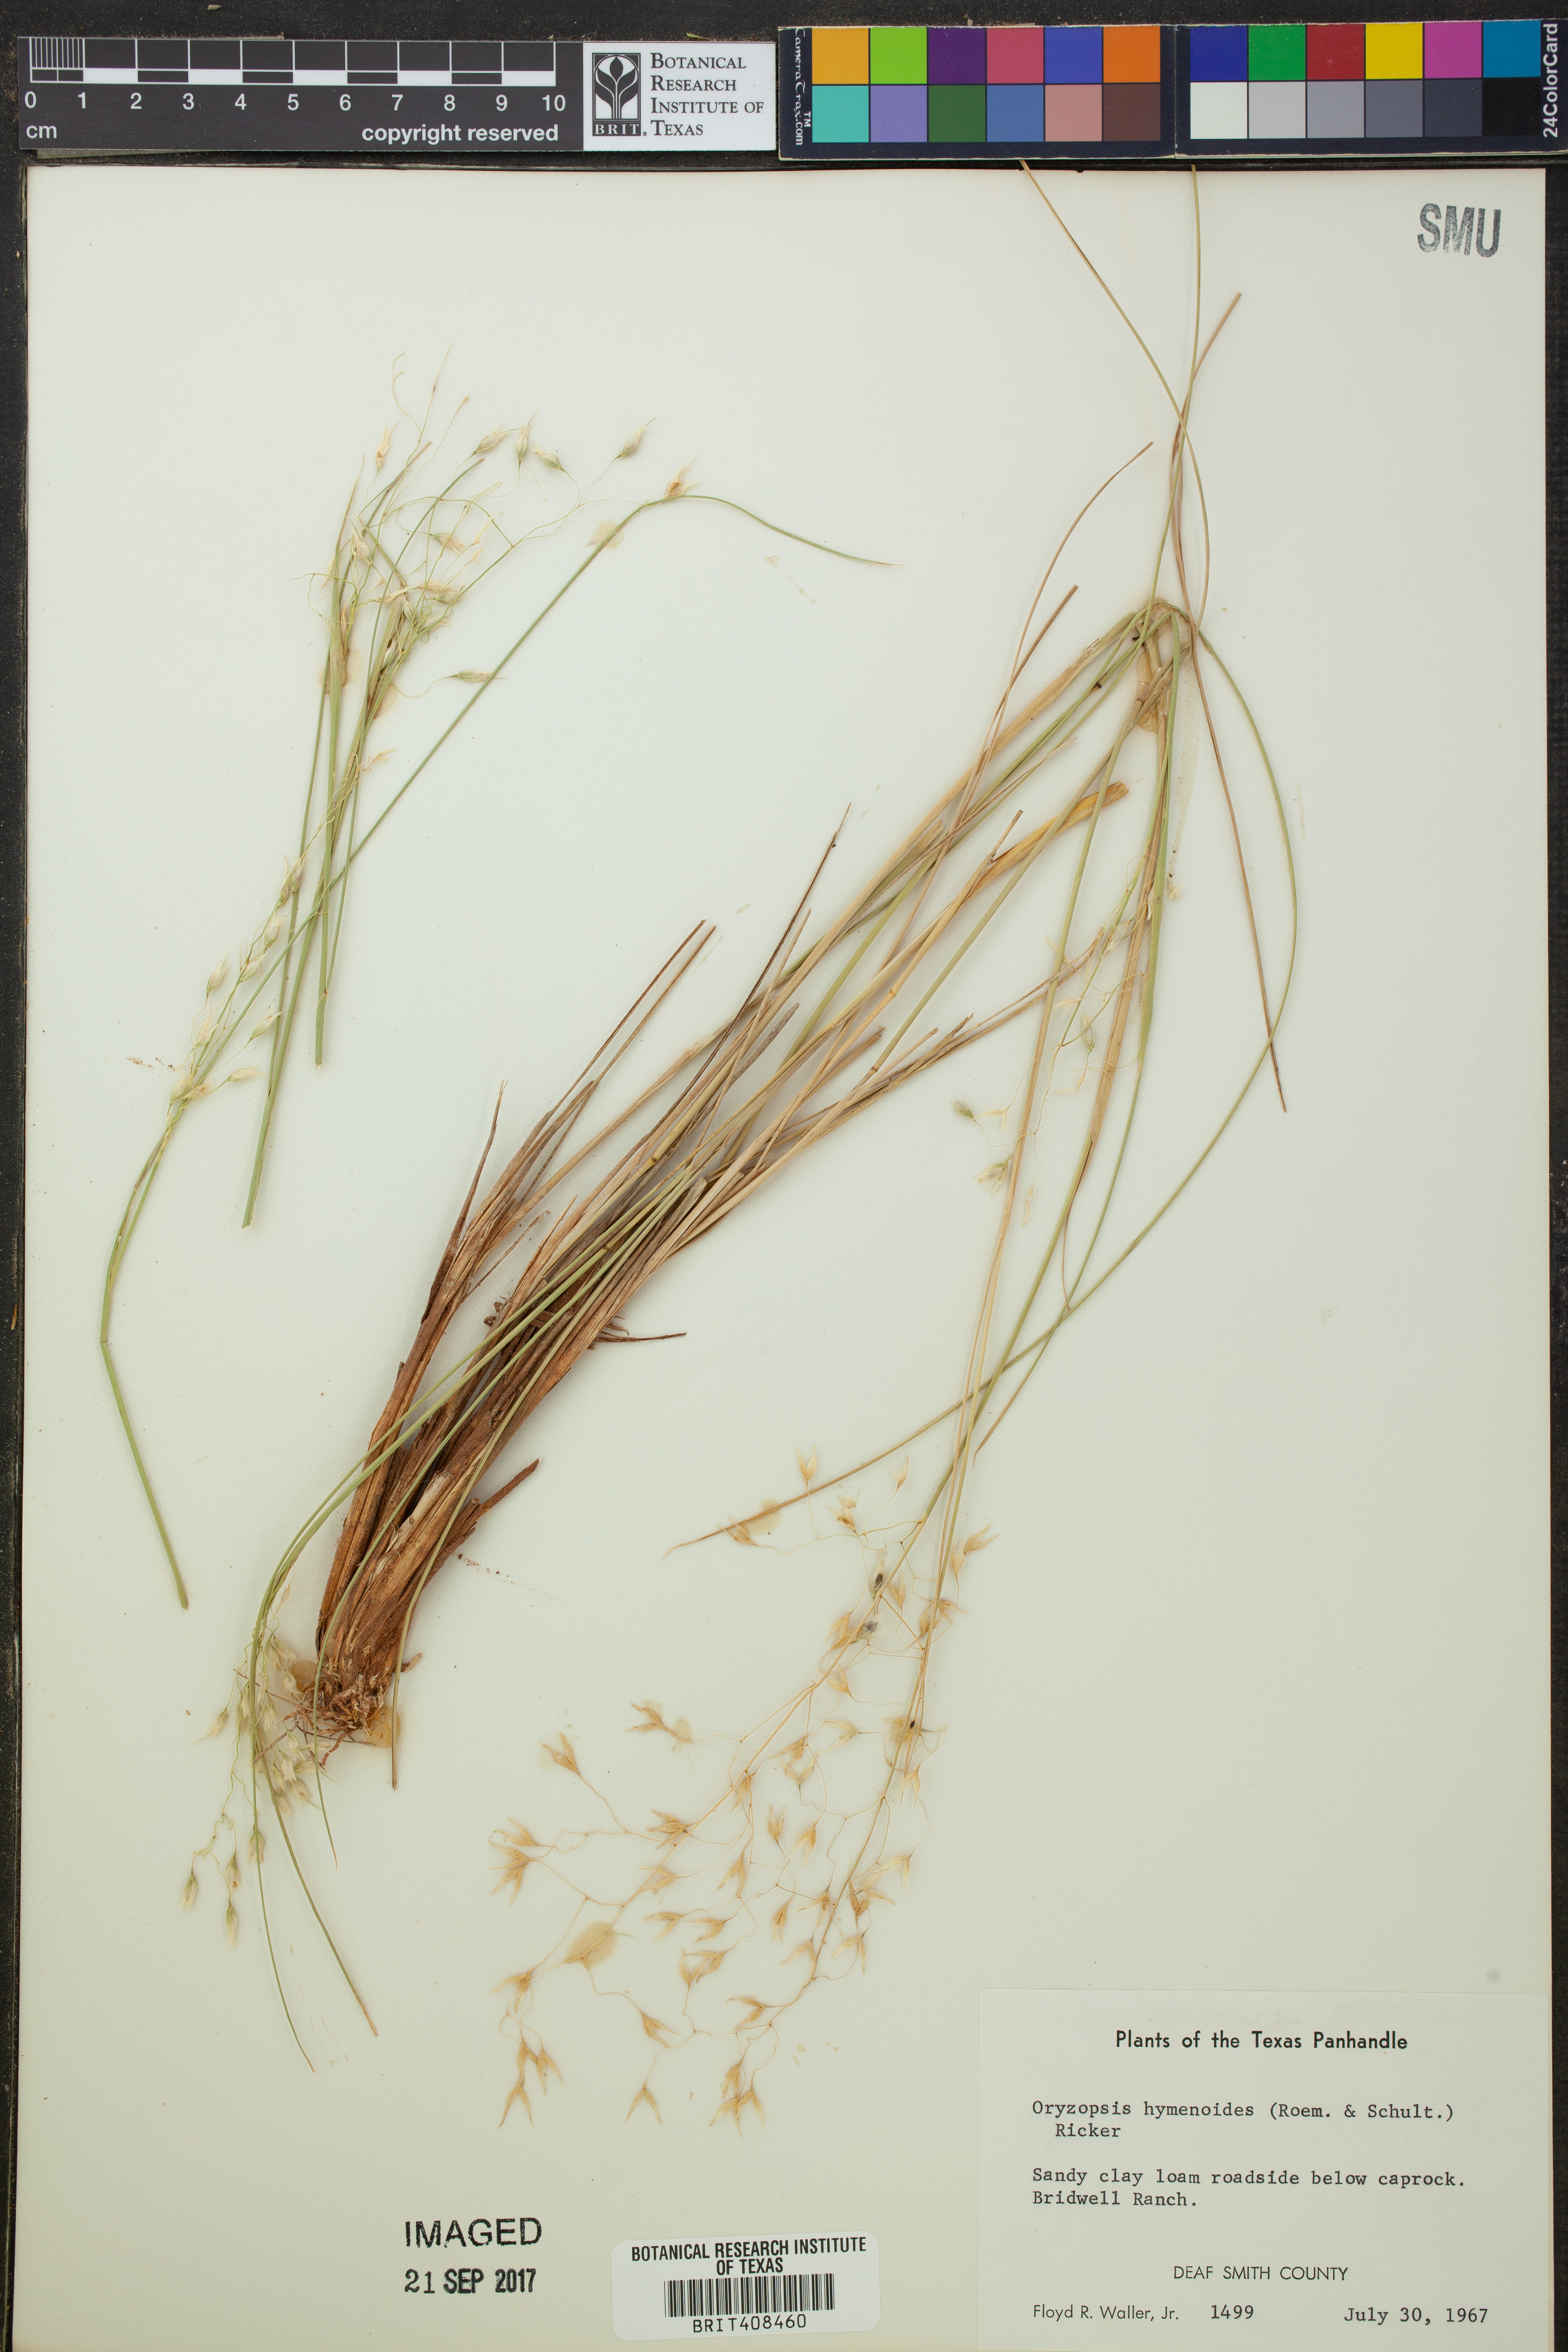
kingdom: Plantae
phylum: Tracheophyta
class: Liliopsida
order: Poales
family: Poaceae
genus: Eriocoma
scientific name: Eriocoma hymenoides
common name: Indian mountain ricegrass
